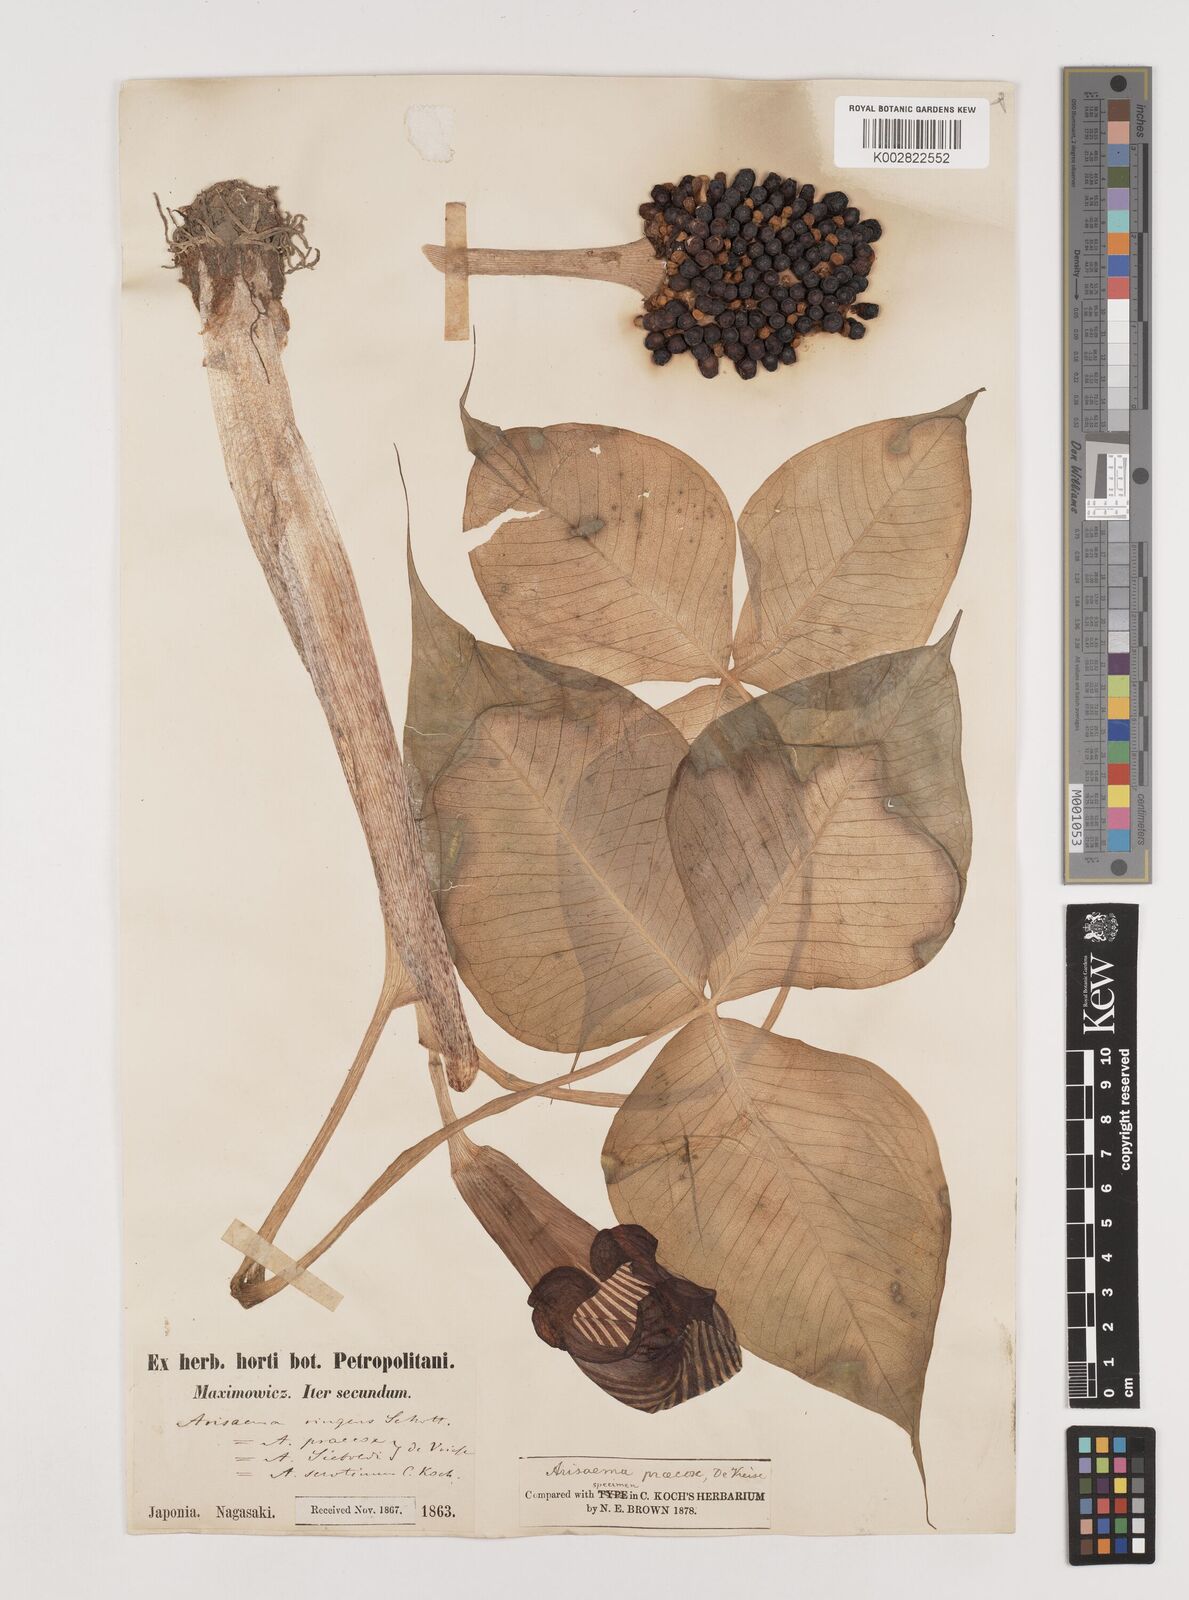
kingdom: Plantae
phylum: Tracheophyta
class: Liliopsida
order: Alismatales
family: Araceae
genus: Arisaema
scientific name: Arisaema ringens
